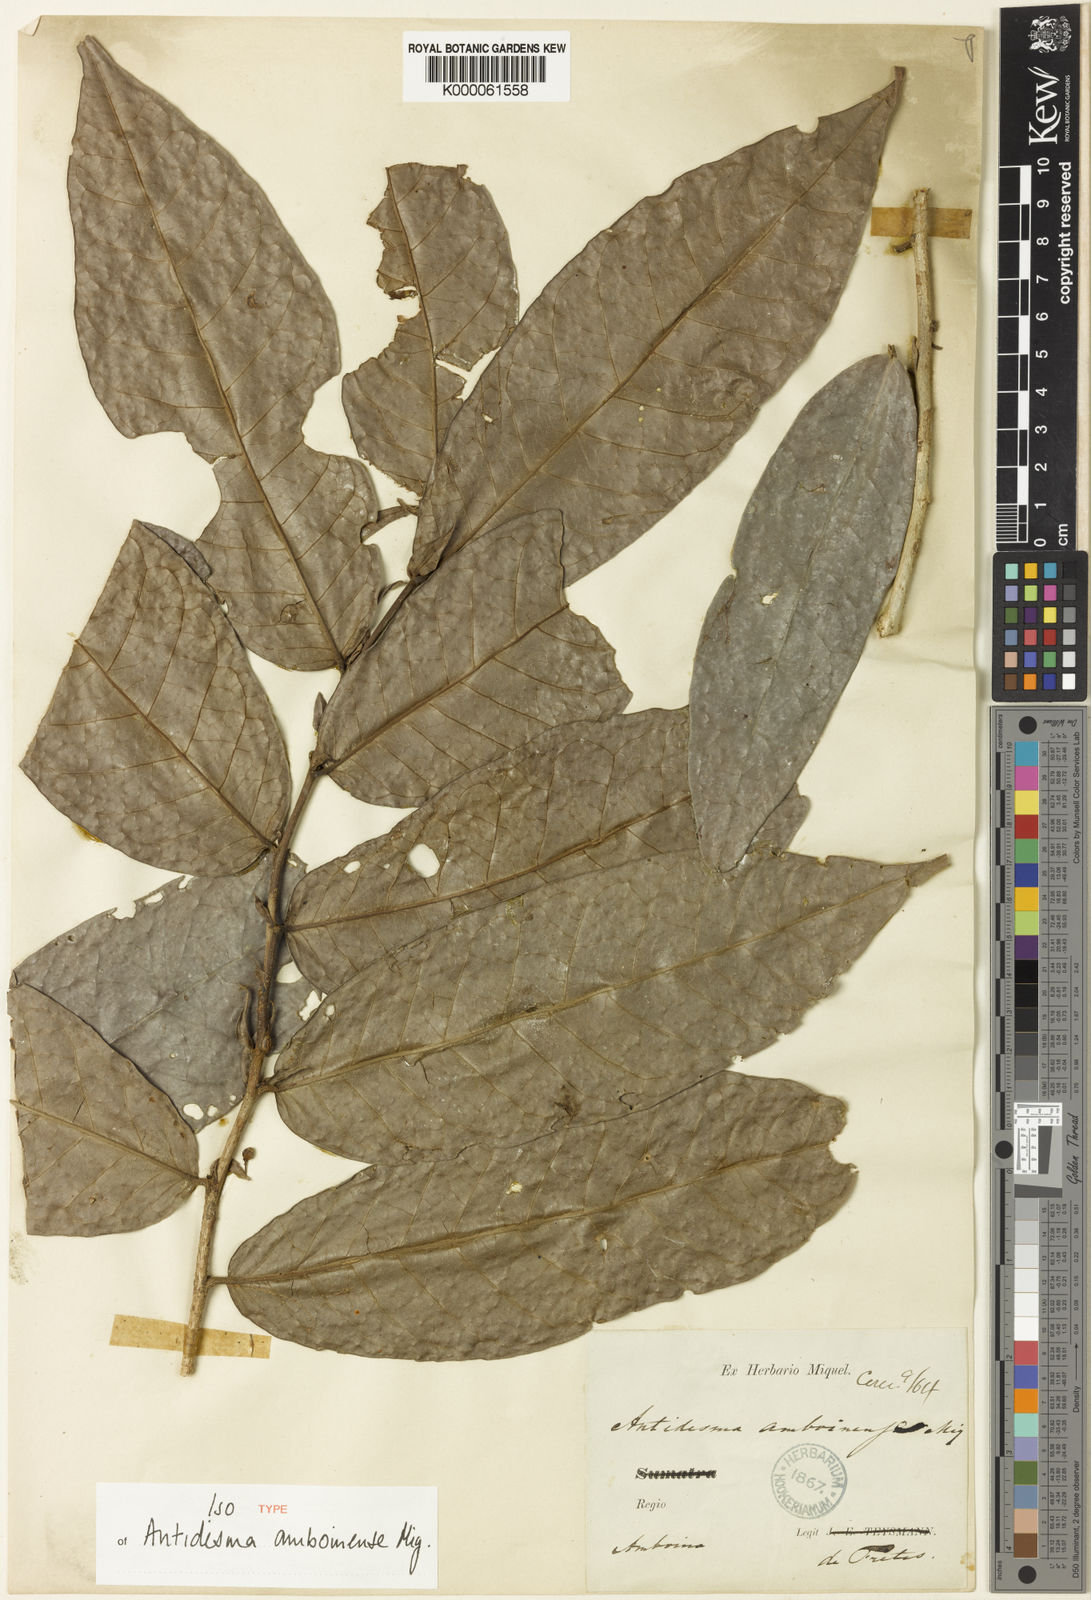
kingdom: Plantae
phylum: Tracheophyta
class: Magnoliopsida
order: Malpighiales
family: Phyllanthaceae
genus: Antidesma
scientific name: Antidesma stipulare
